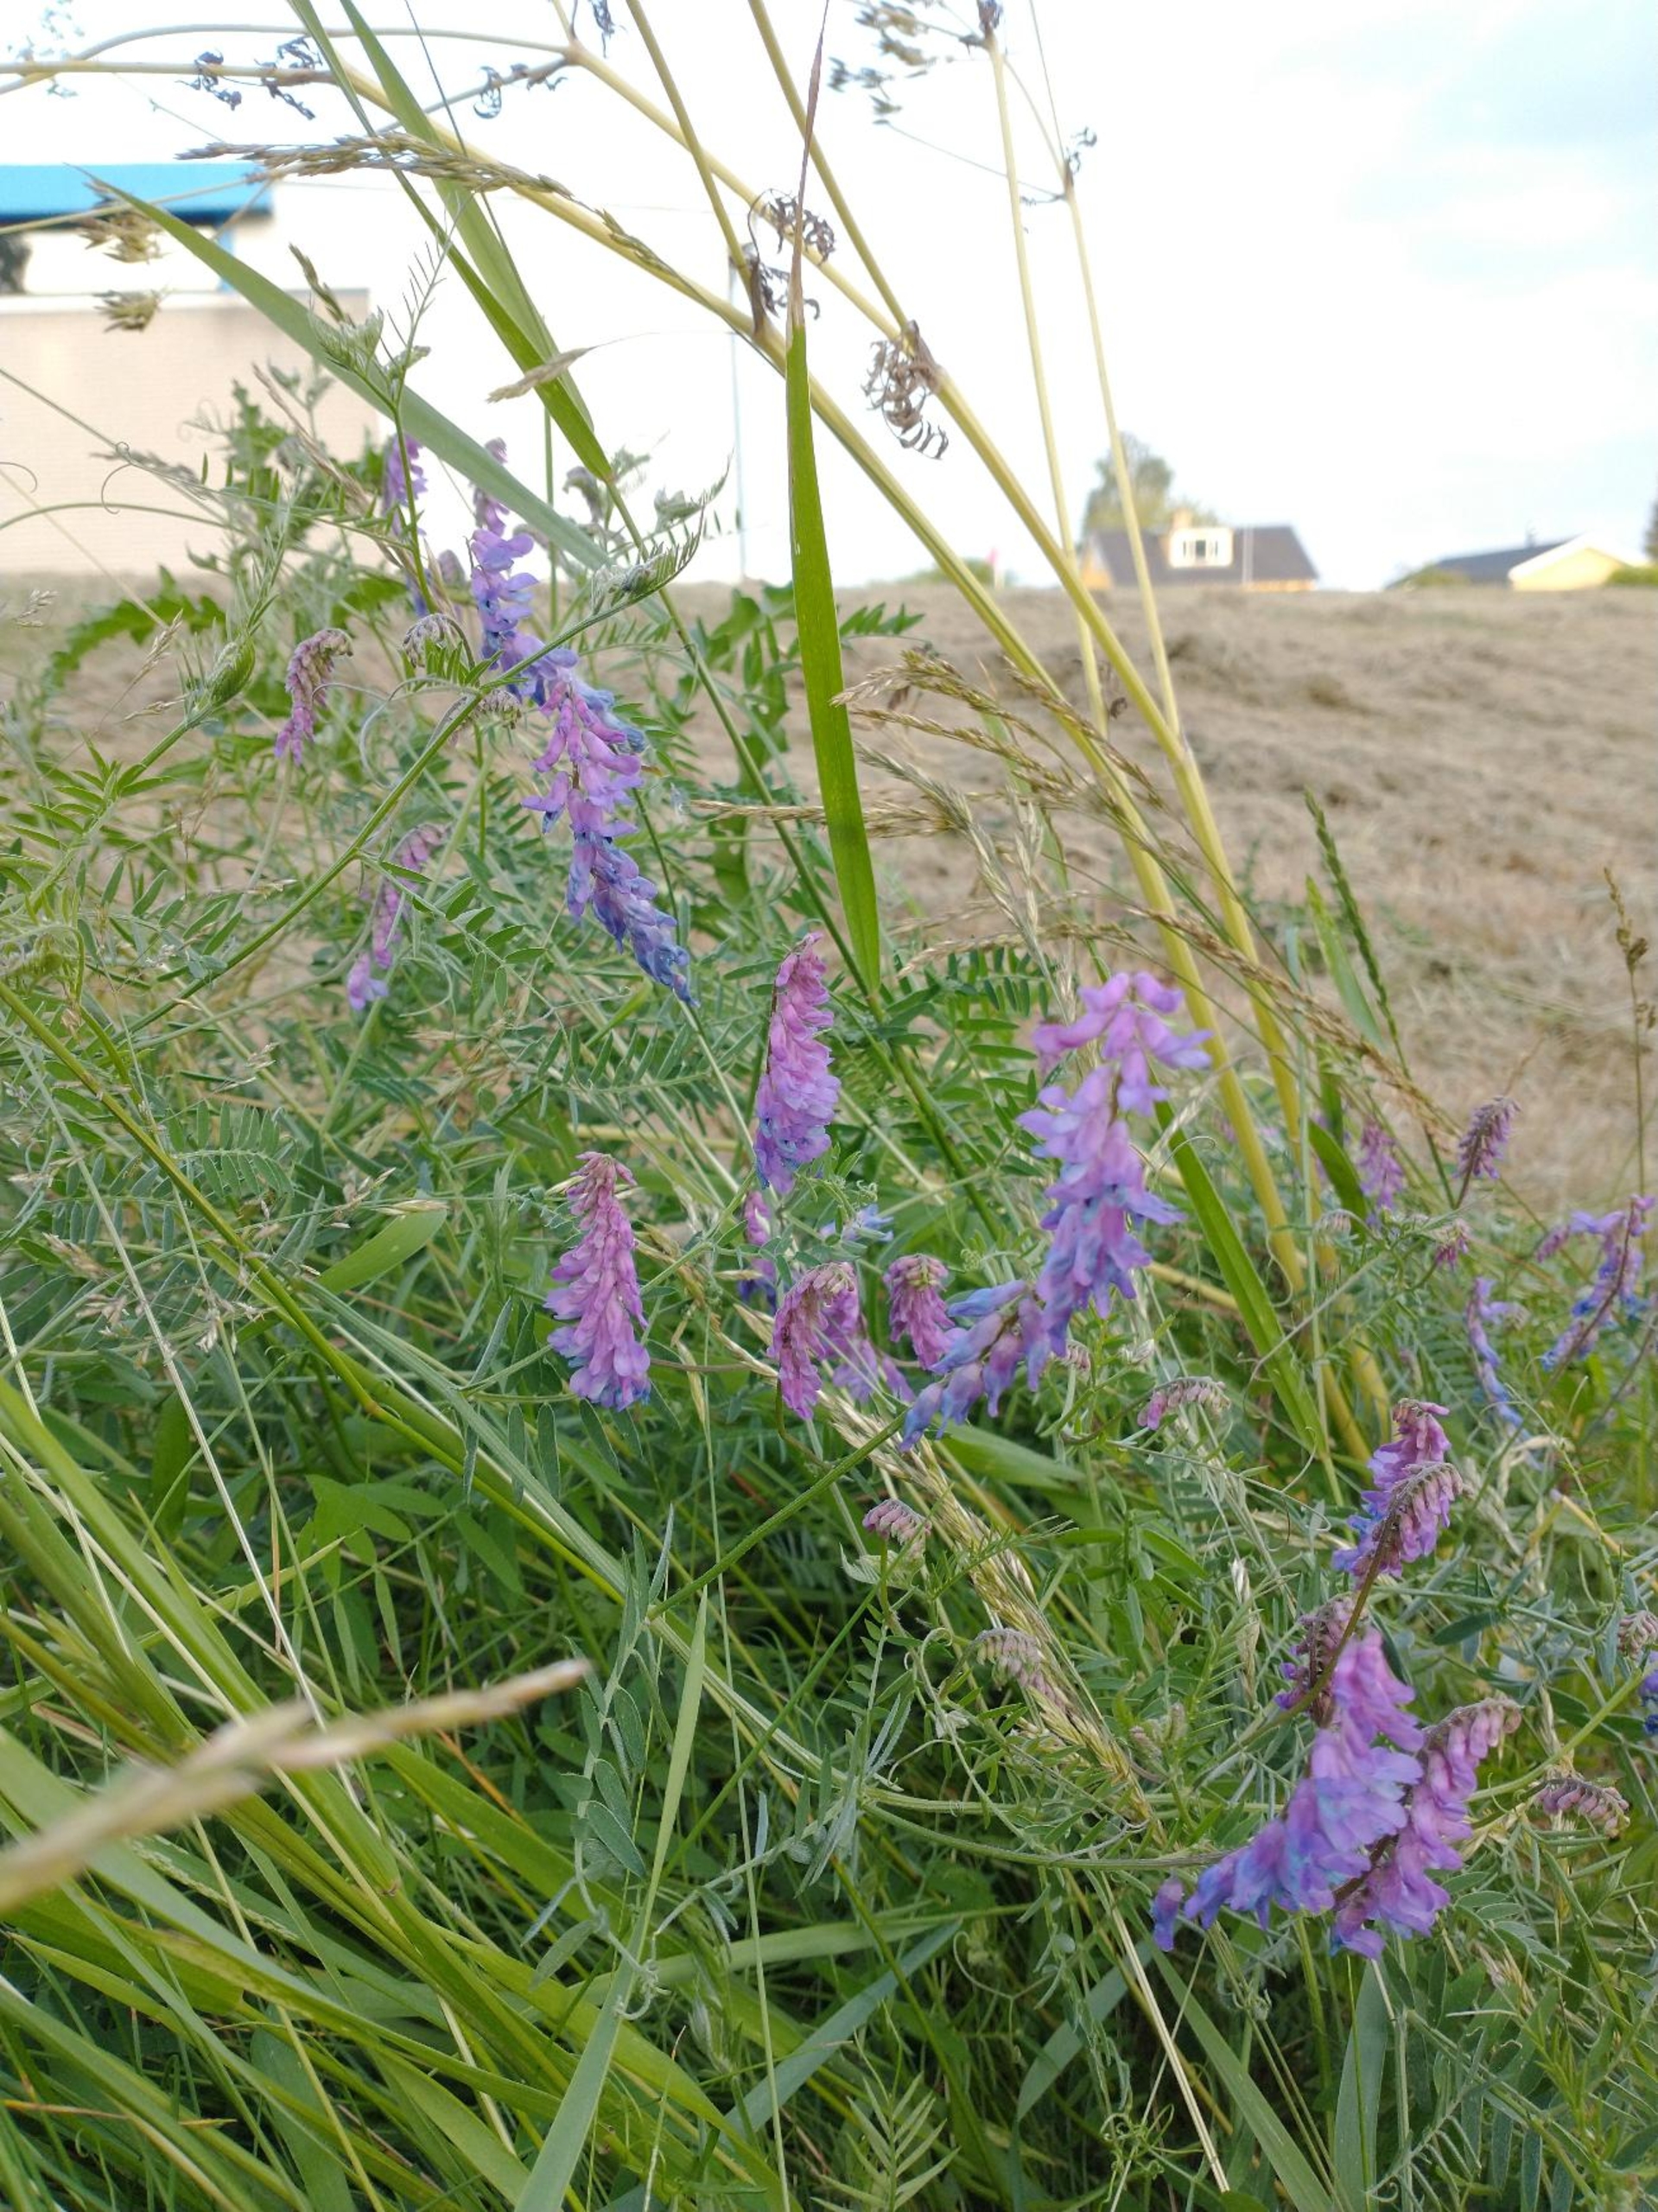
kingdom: Plantae
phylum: Tracheophyta
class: Magnoliopsida
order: Fabales
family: Fabaceae
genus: Vicia
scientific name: Vicia cracca
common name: Muse-vikke
